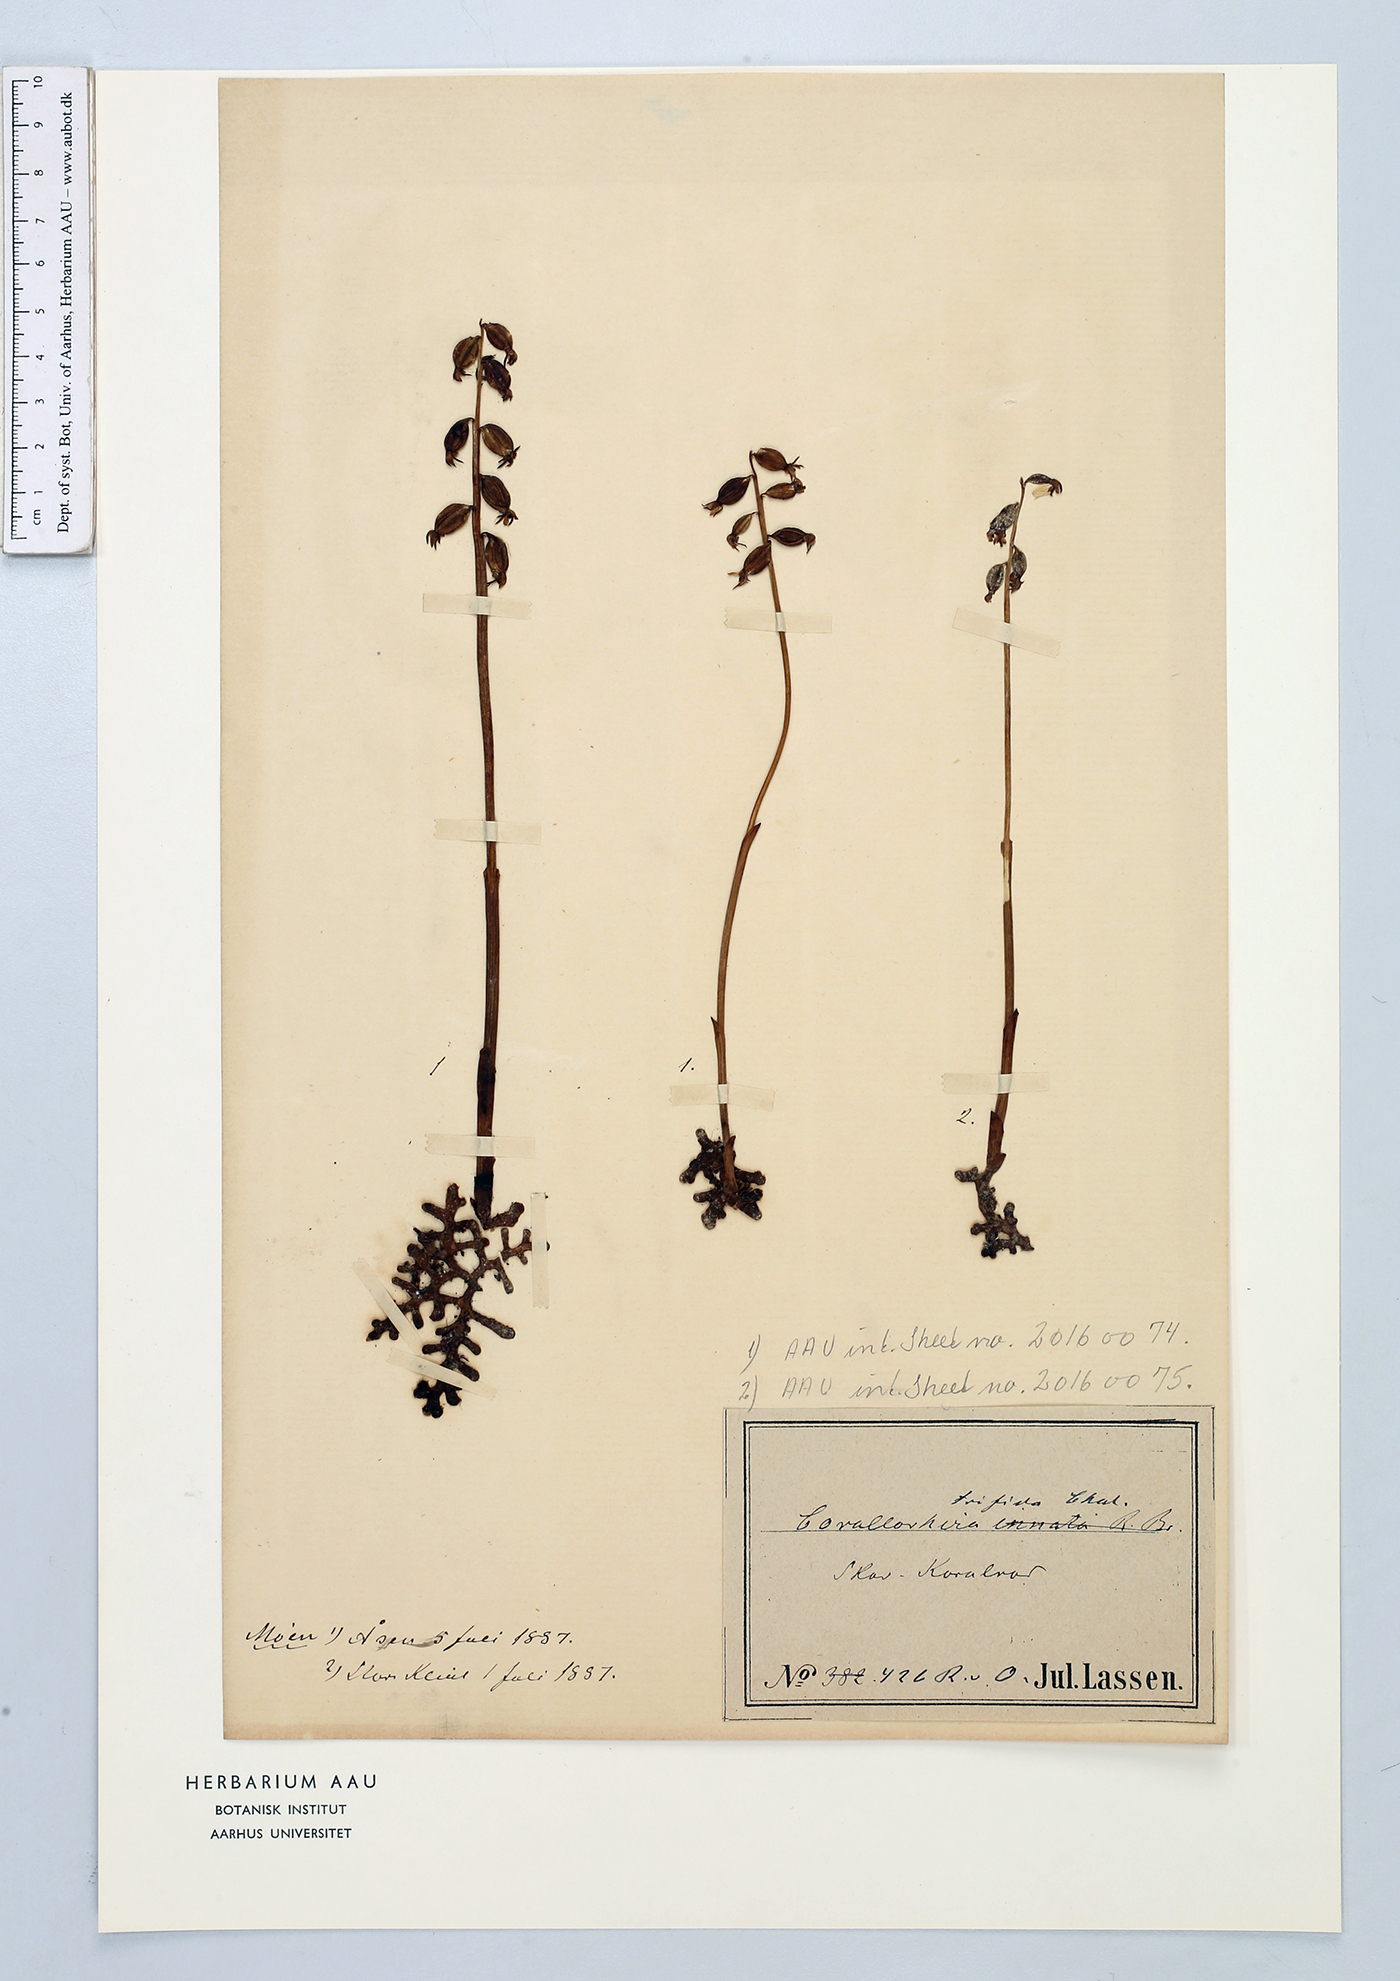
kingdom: Plantae
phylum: Tracheophyta
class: Liliopsida
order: Asparagales
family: Orchidaceae
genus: Corallorhiza
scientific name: Corallorhiza trifida
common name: Yellow coralroot
